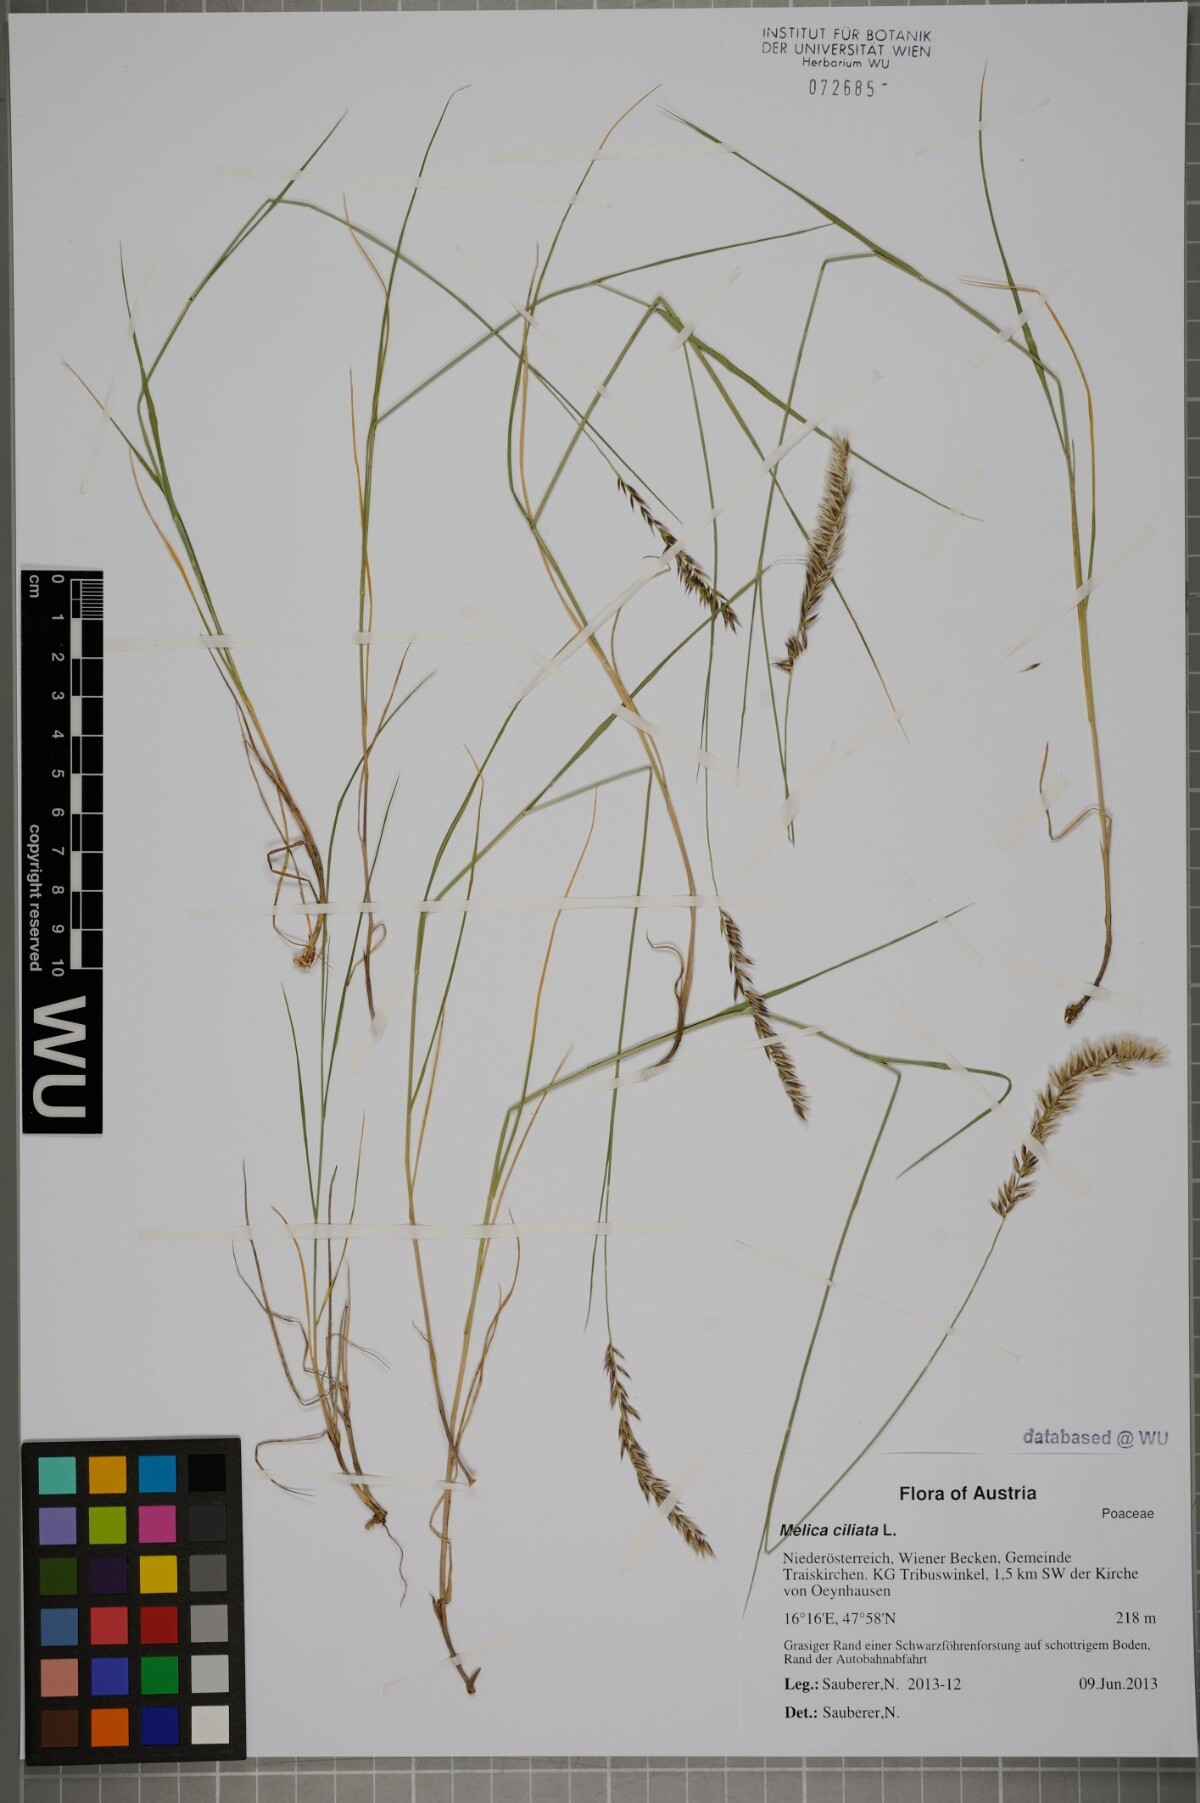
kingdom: Plantae
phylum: Tracheophyta
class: Liliopsida
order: Poales
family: Poaceae
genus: Melica
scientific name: Melica ciliata
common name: Hairy melicgrass
